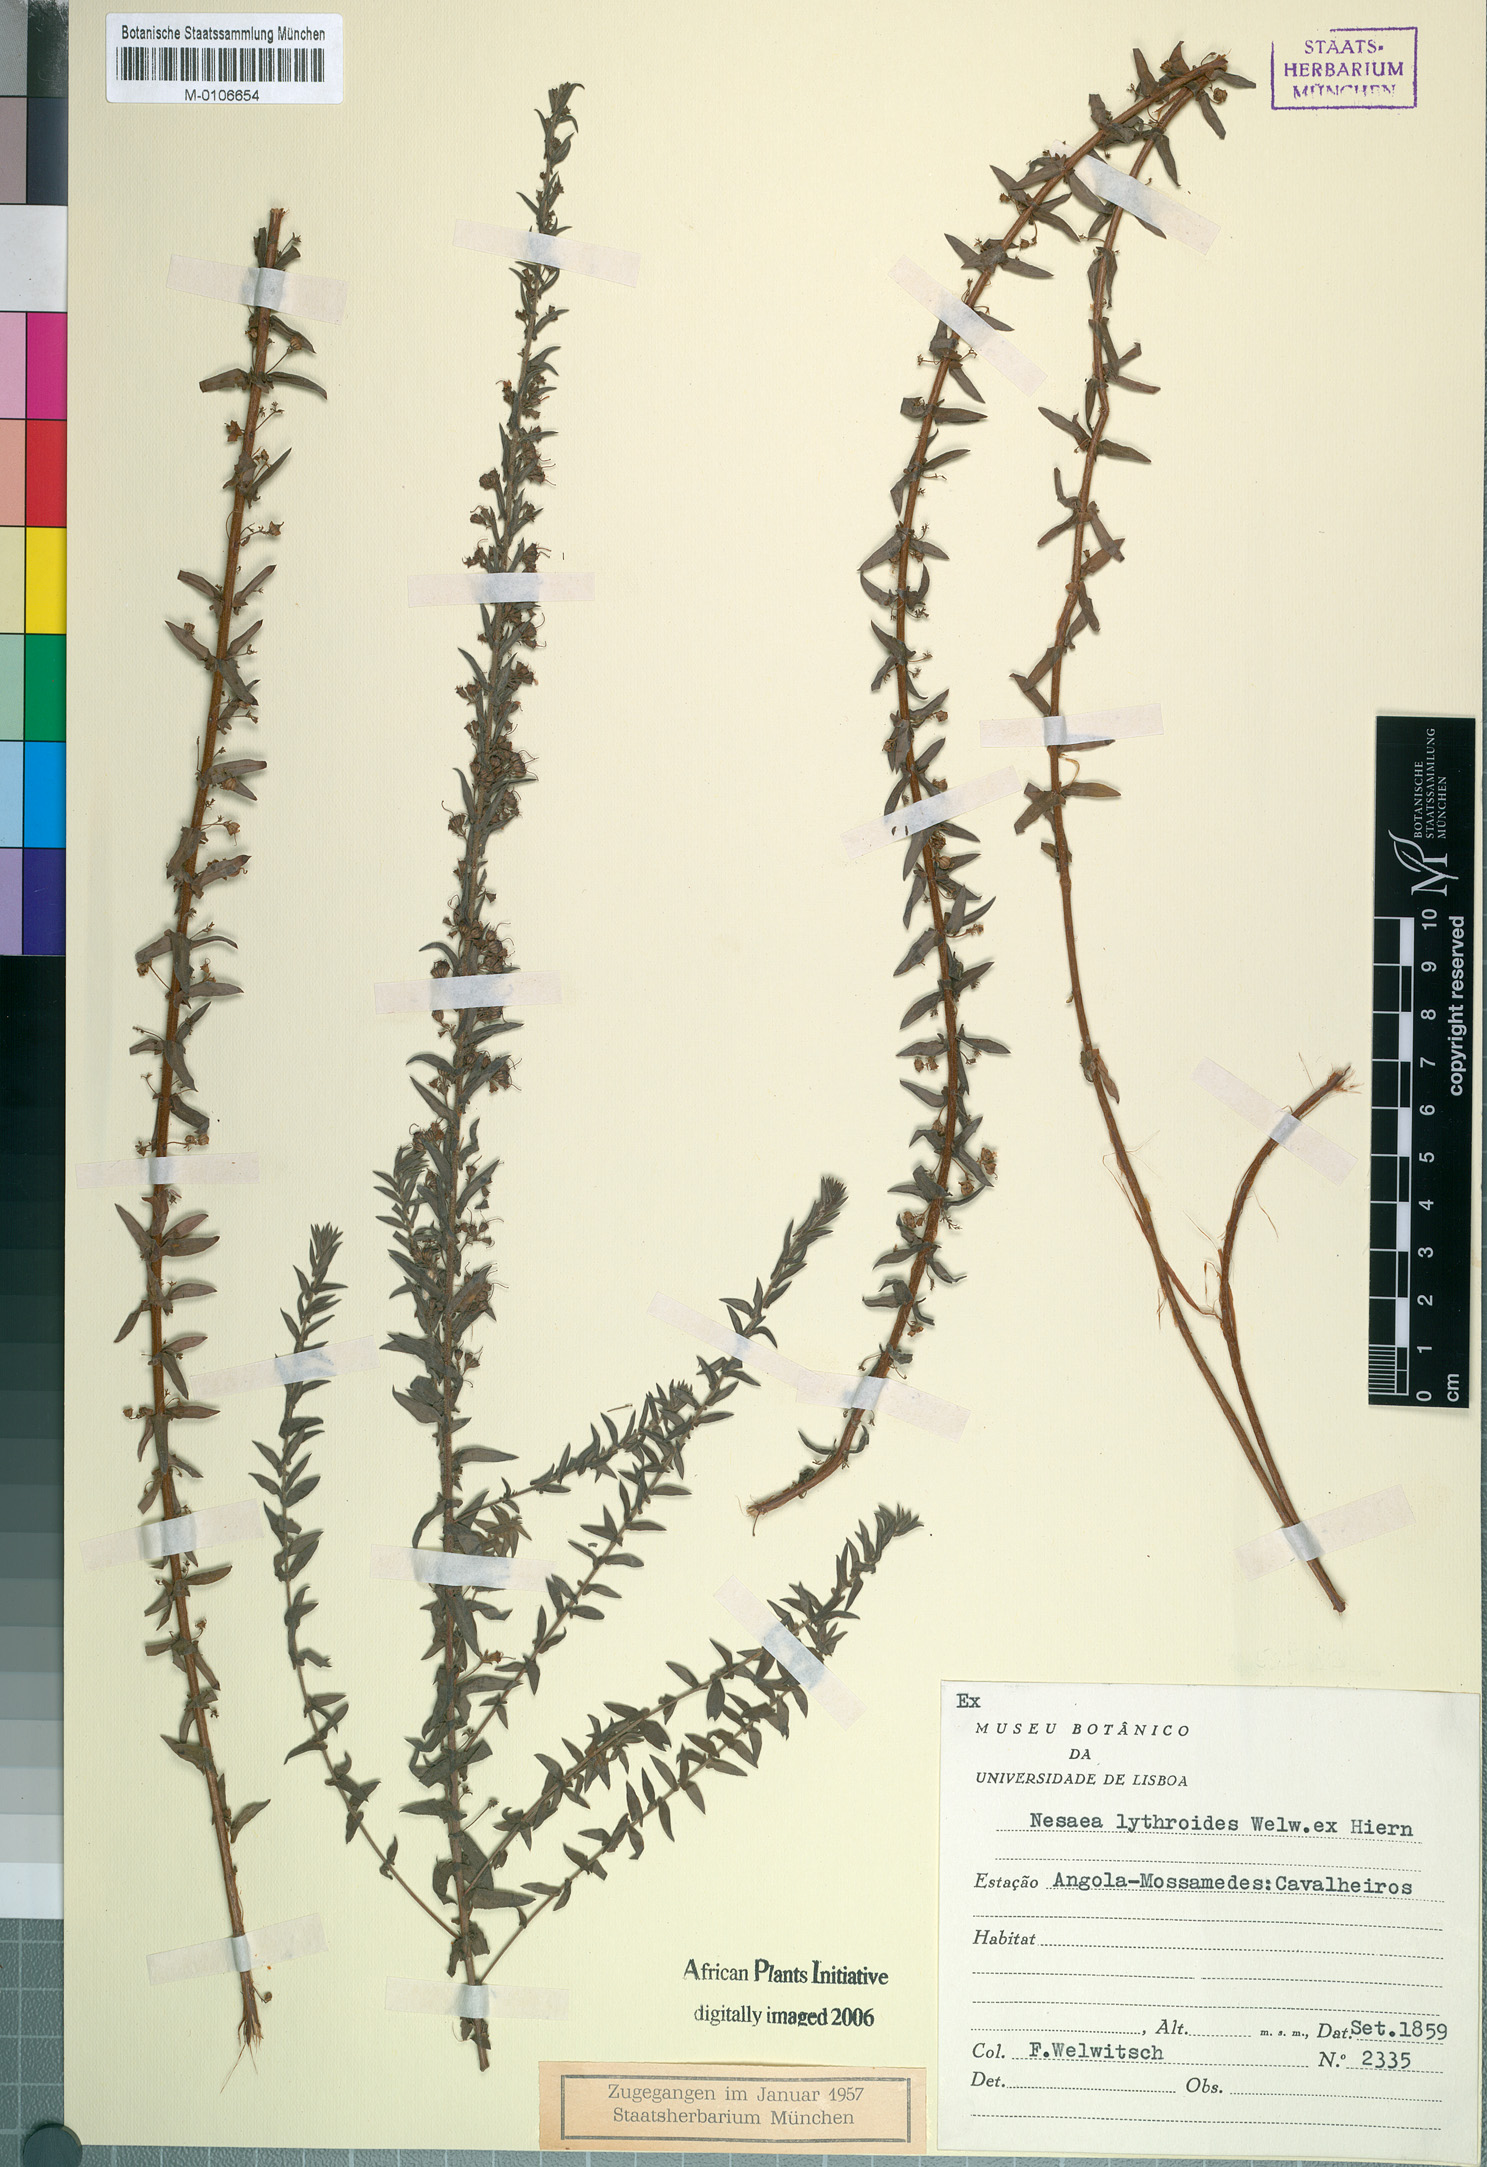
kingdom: Plantae
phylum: Tracheophyta
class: Magnoliopsida
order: Myrtales
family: Lythraceae
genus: Ammannia
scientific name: Ammannia lythroides
